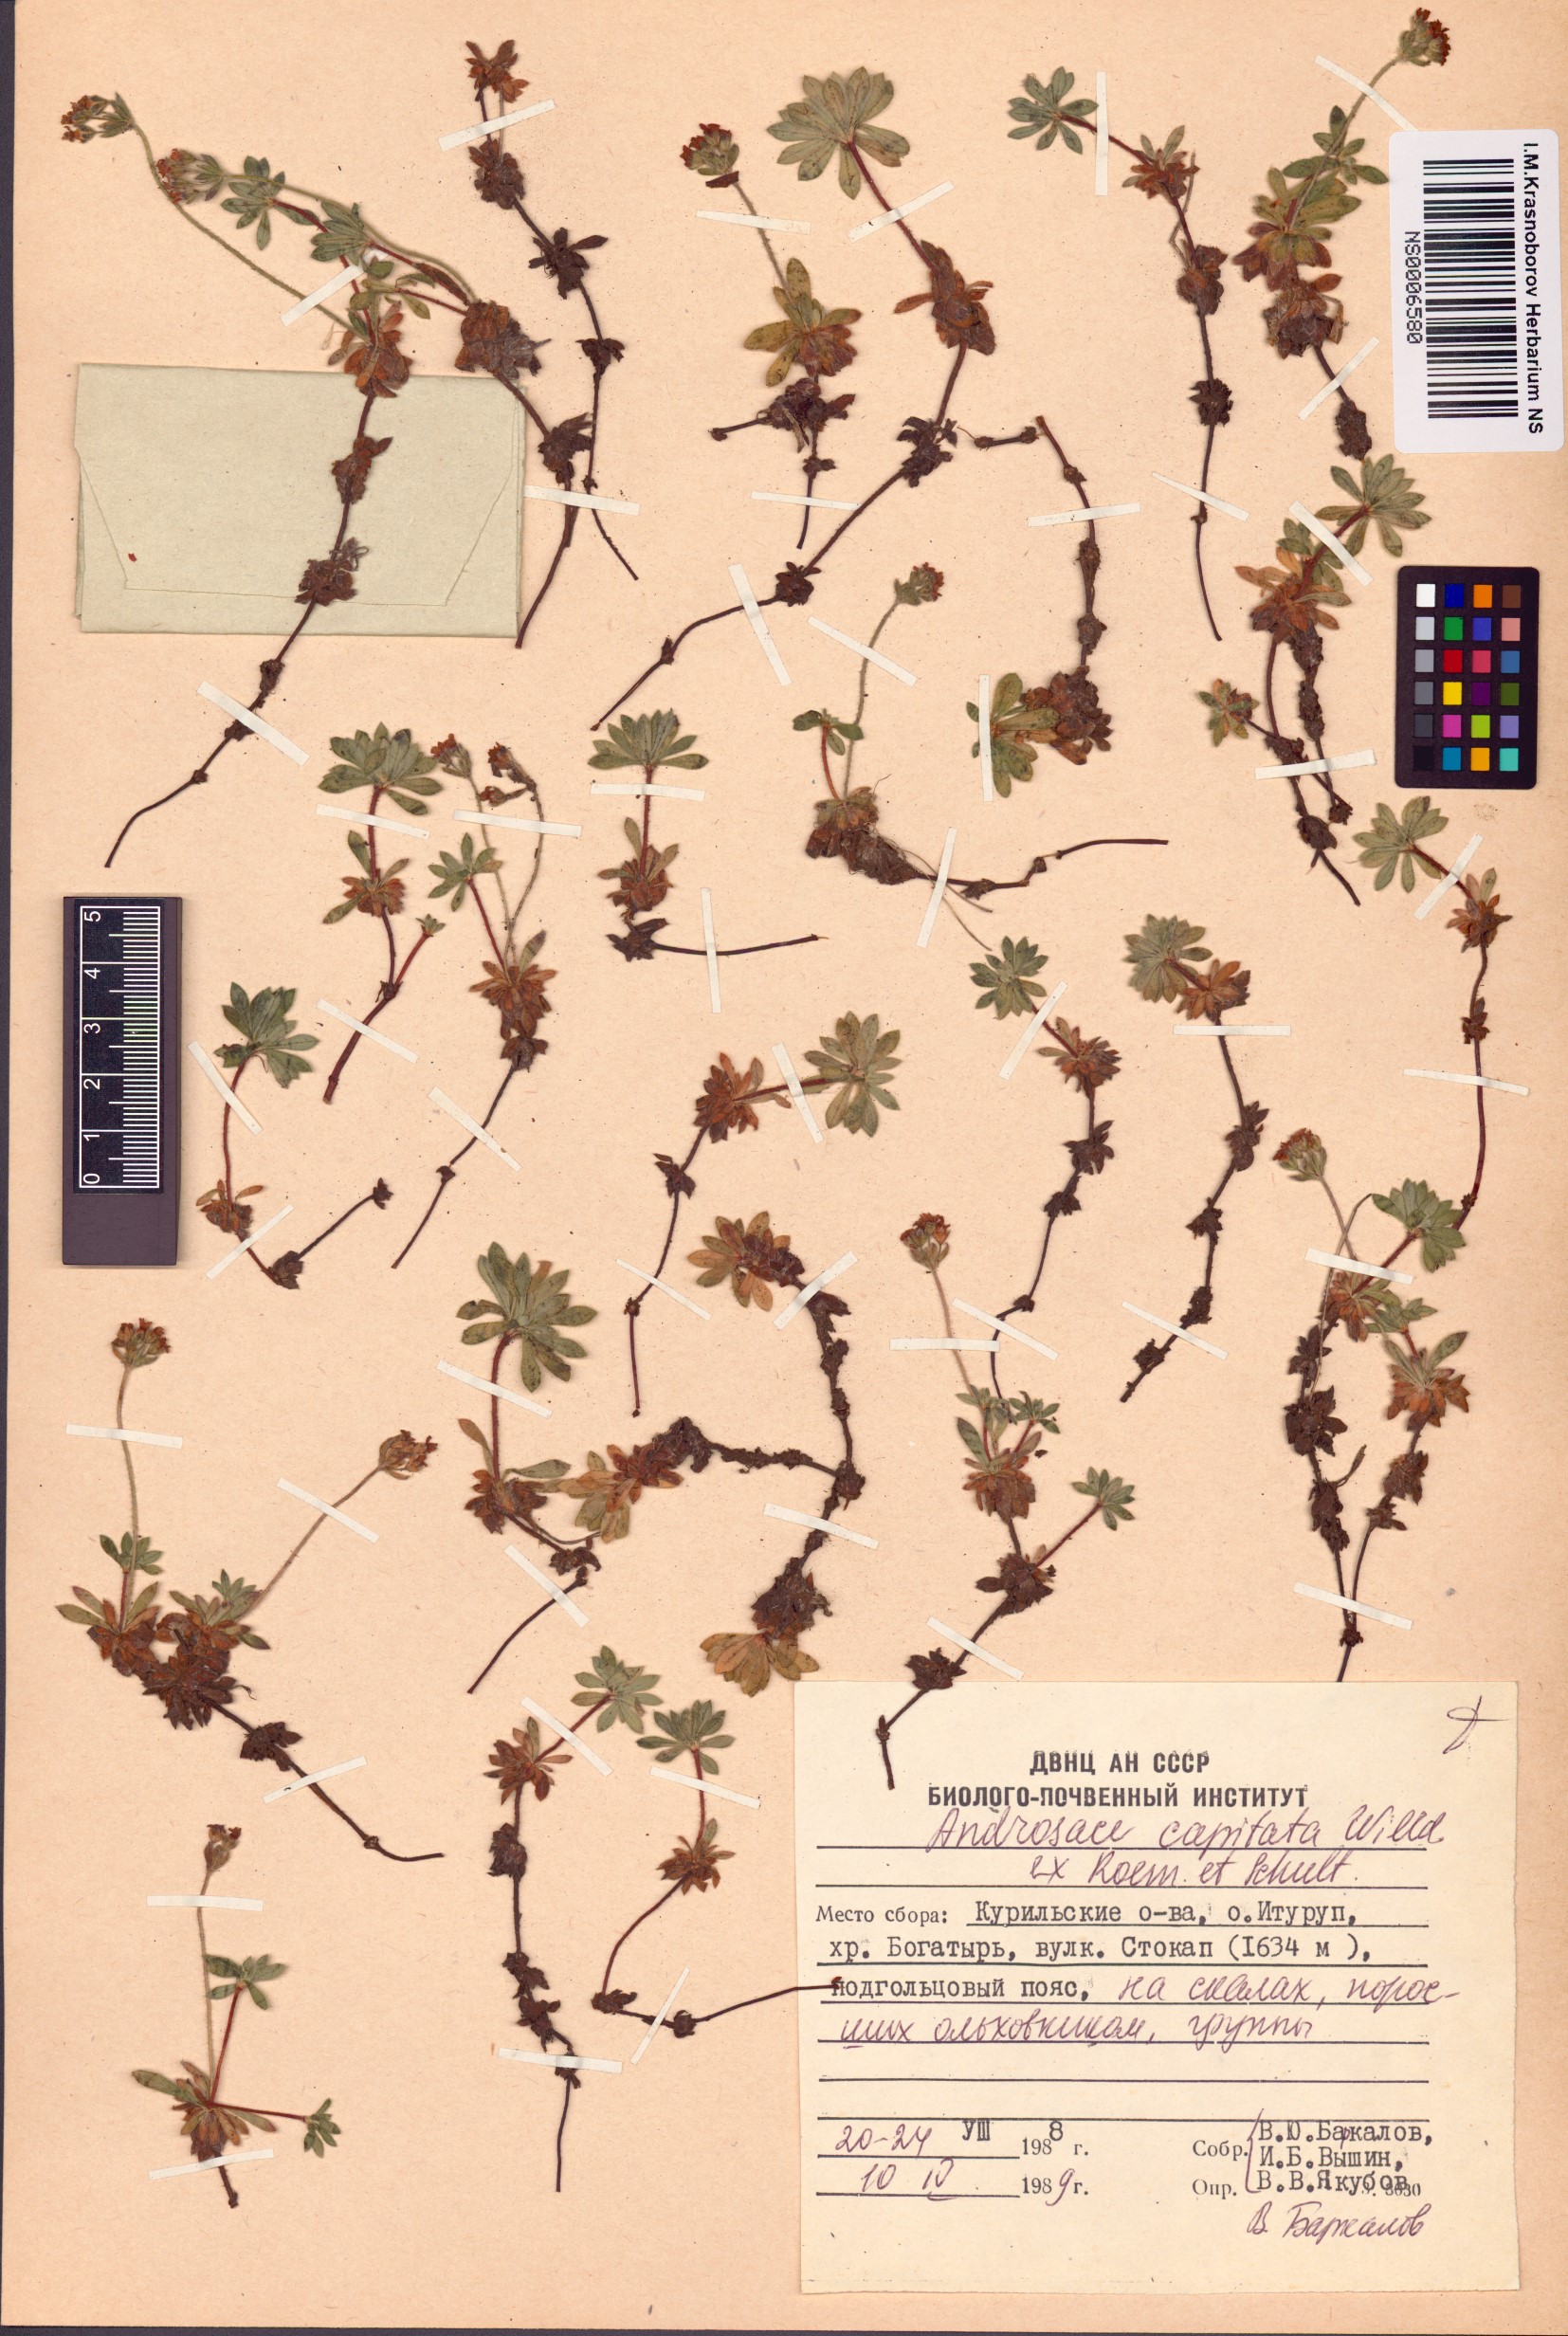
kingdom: Plantae
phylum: Tracheophyta
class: Magnoliopsida
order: Ericales
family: Primulaceae
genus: Androsace
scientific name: Androsace chamaejasme
